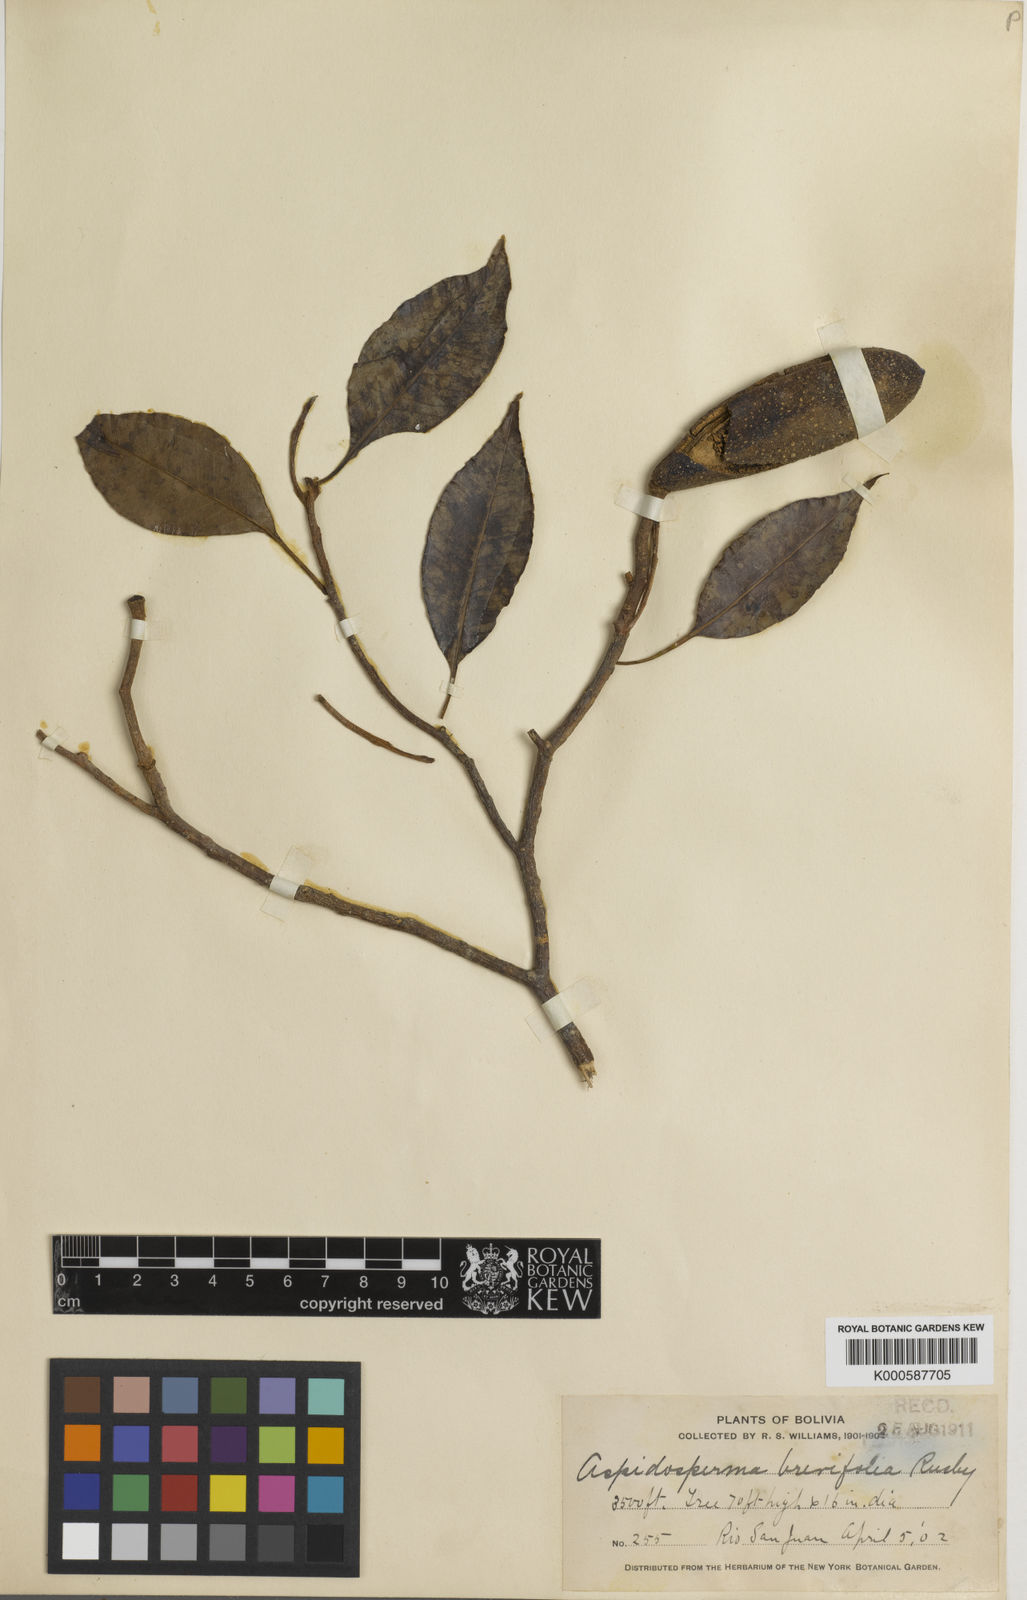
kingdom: Plantae
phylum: Tracheophyta
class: Magnoliopsida
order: Gentianales
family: Apocynaceae
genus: Aspidosperma
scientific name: Aspidosperma
